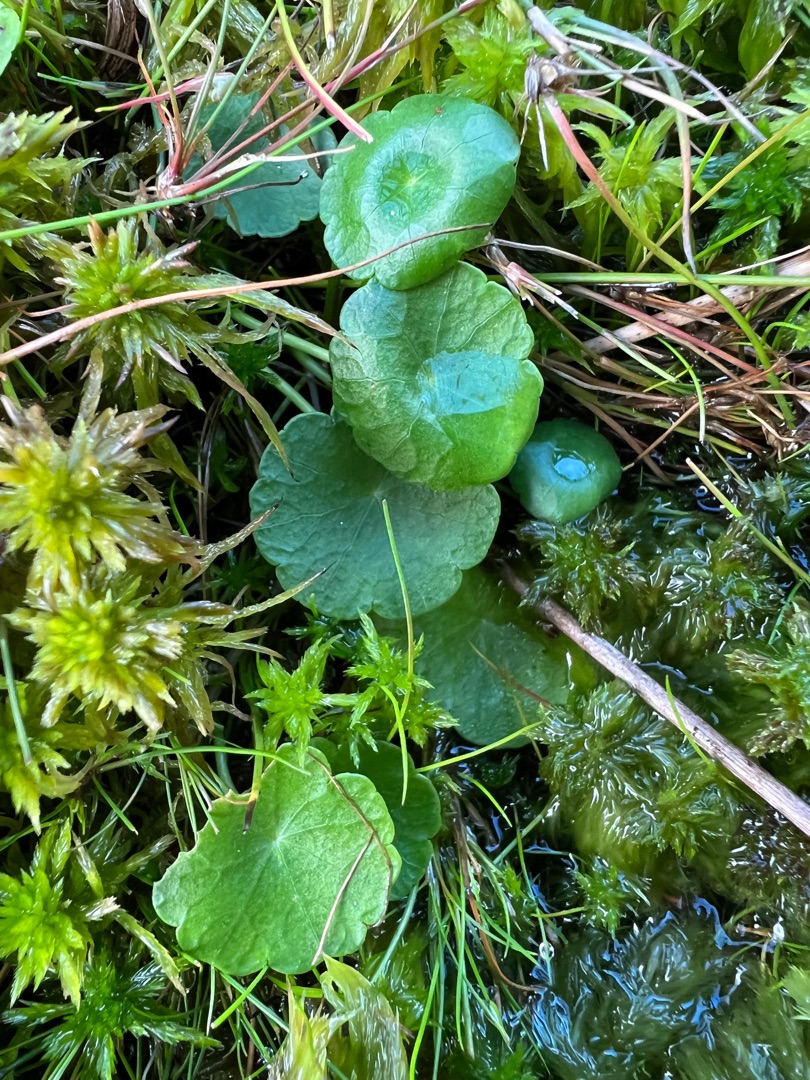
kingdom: Plantae
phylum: Tracheophyta
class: Magnoliopsida
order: Apiales
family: Araliaceae
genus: Hydrocotyle
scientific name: Hydrocotyle vulgaris
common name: Vandnavle
